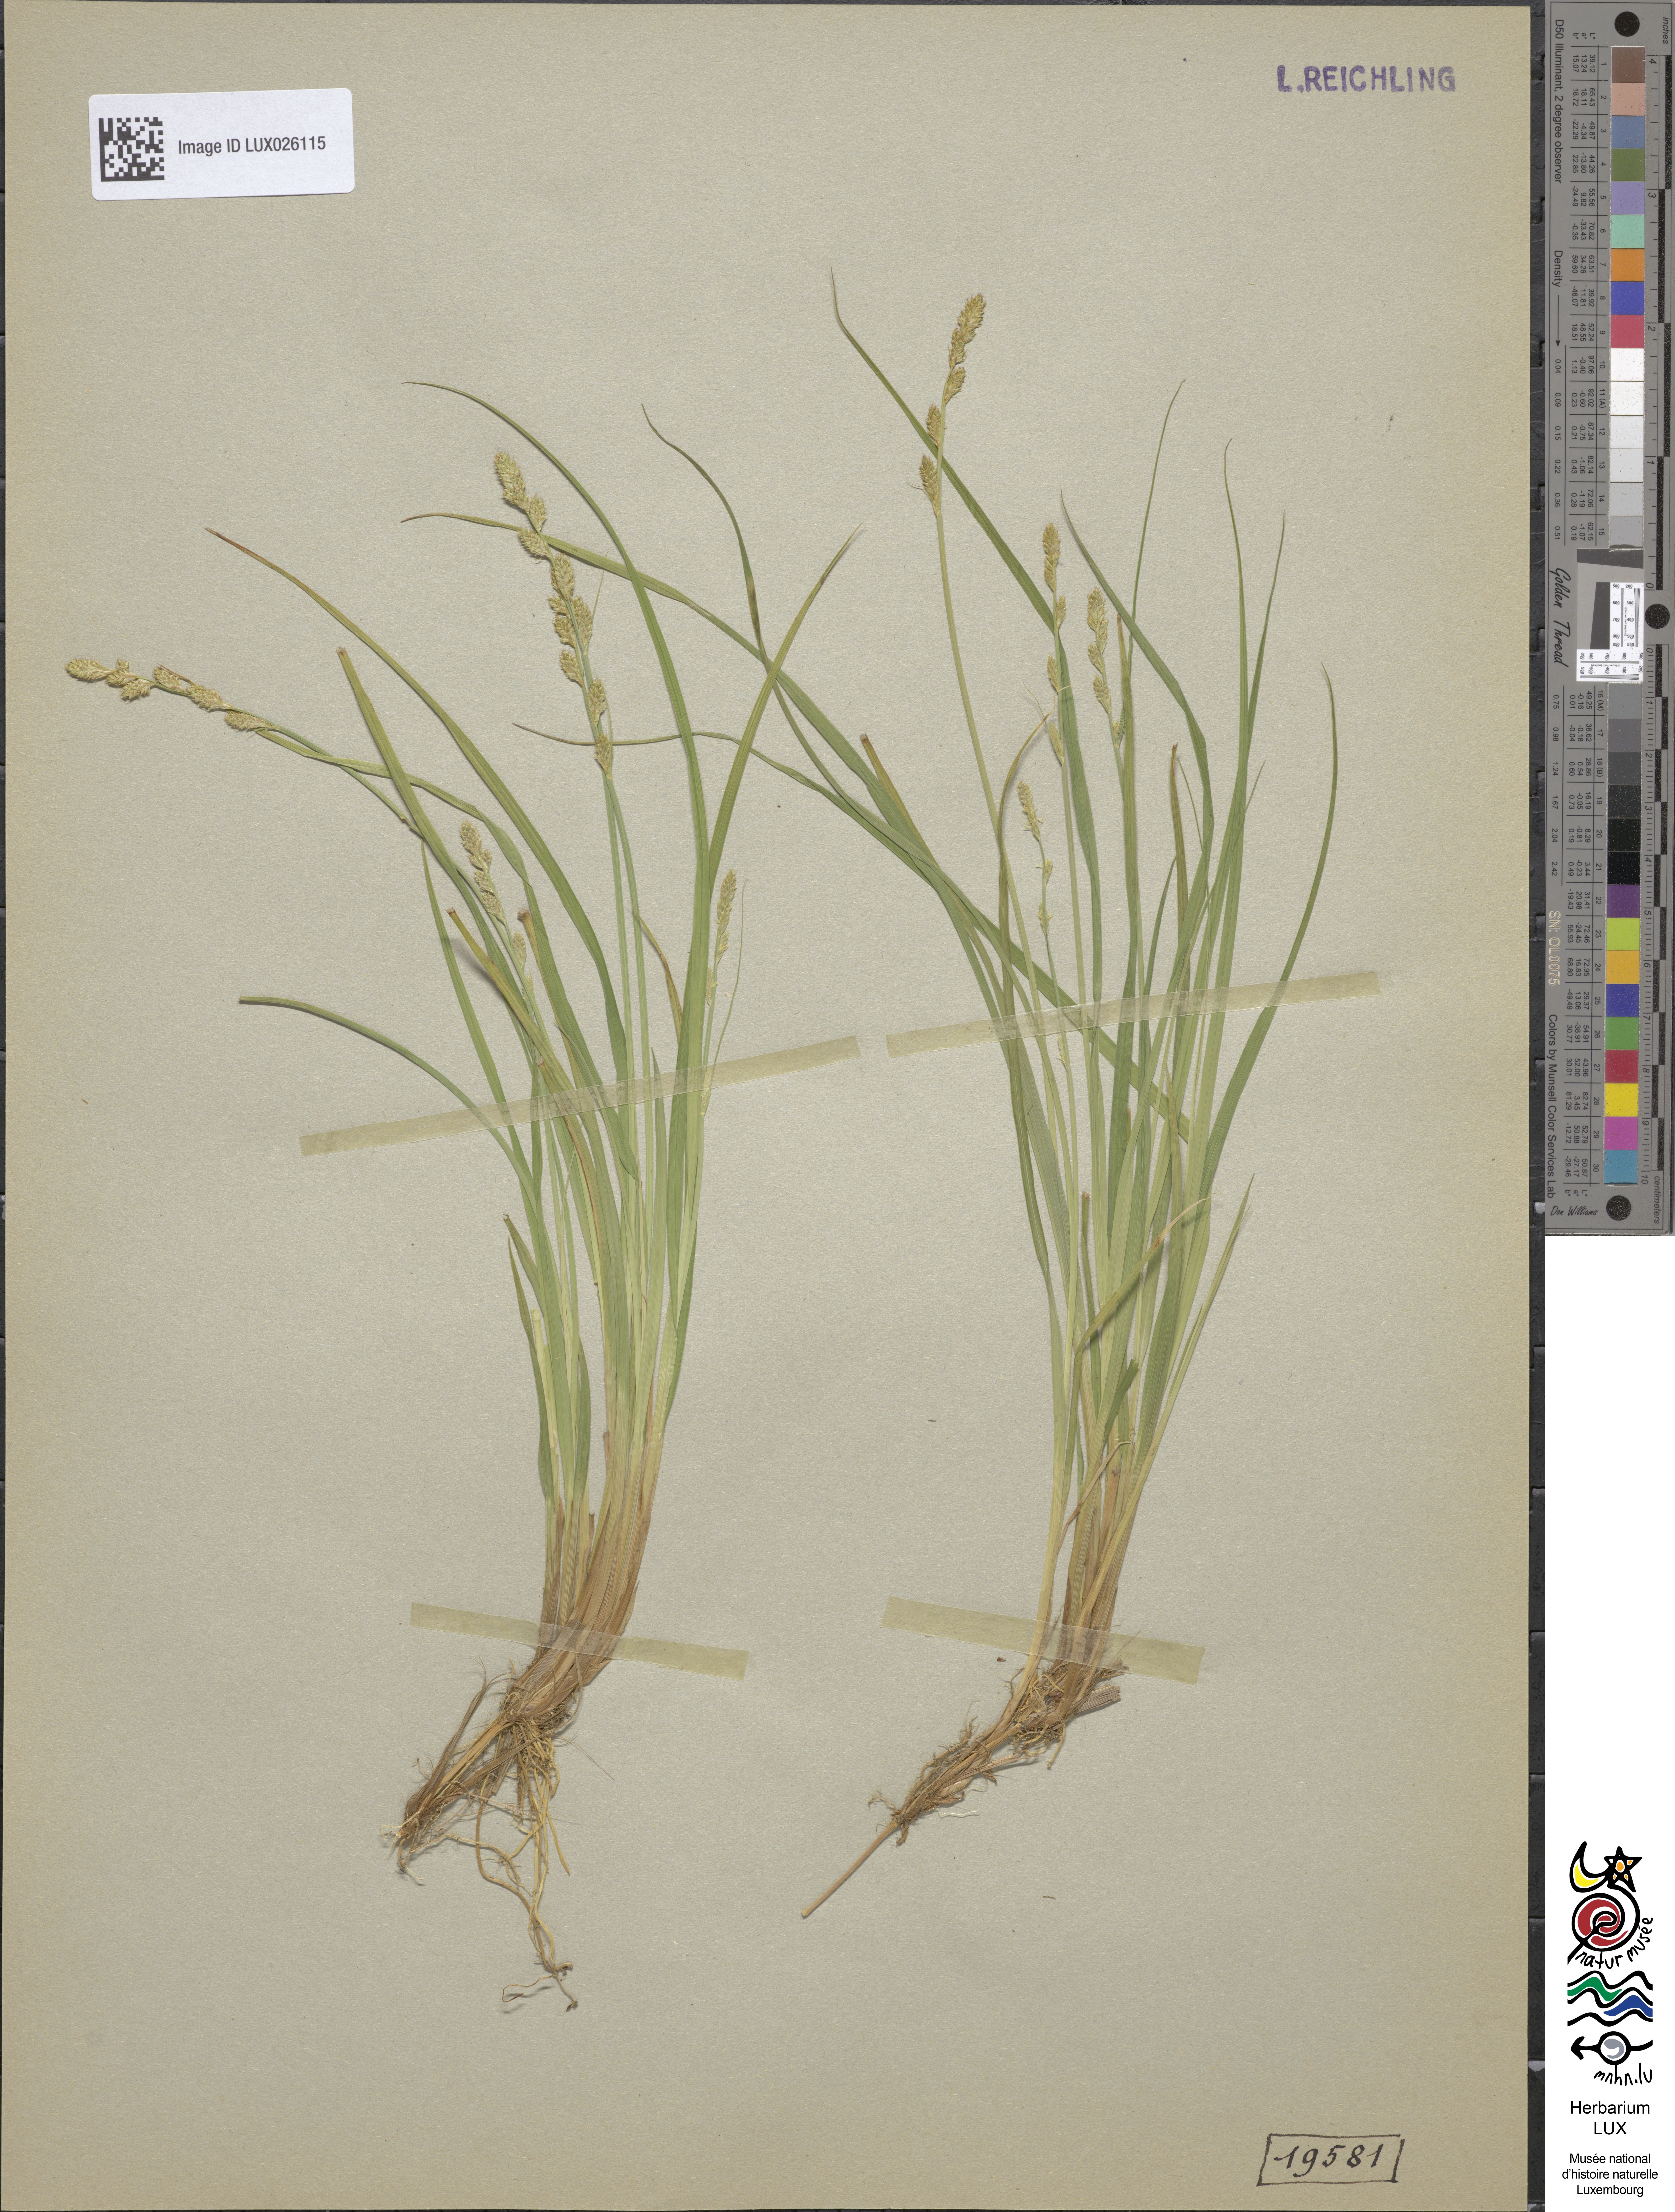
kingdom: Plantae
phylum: Tracheophyta
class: Liliopsida
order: Poales
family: Cyperaceae
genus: Carex
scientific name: Carex canescens
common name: White sedge
